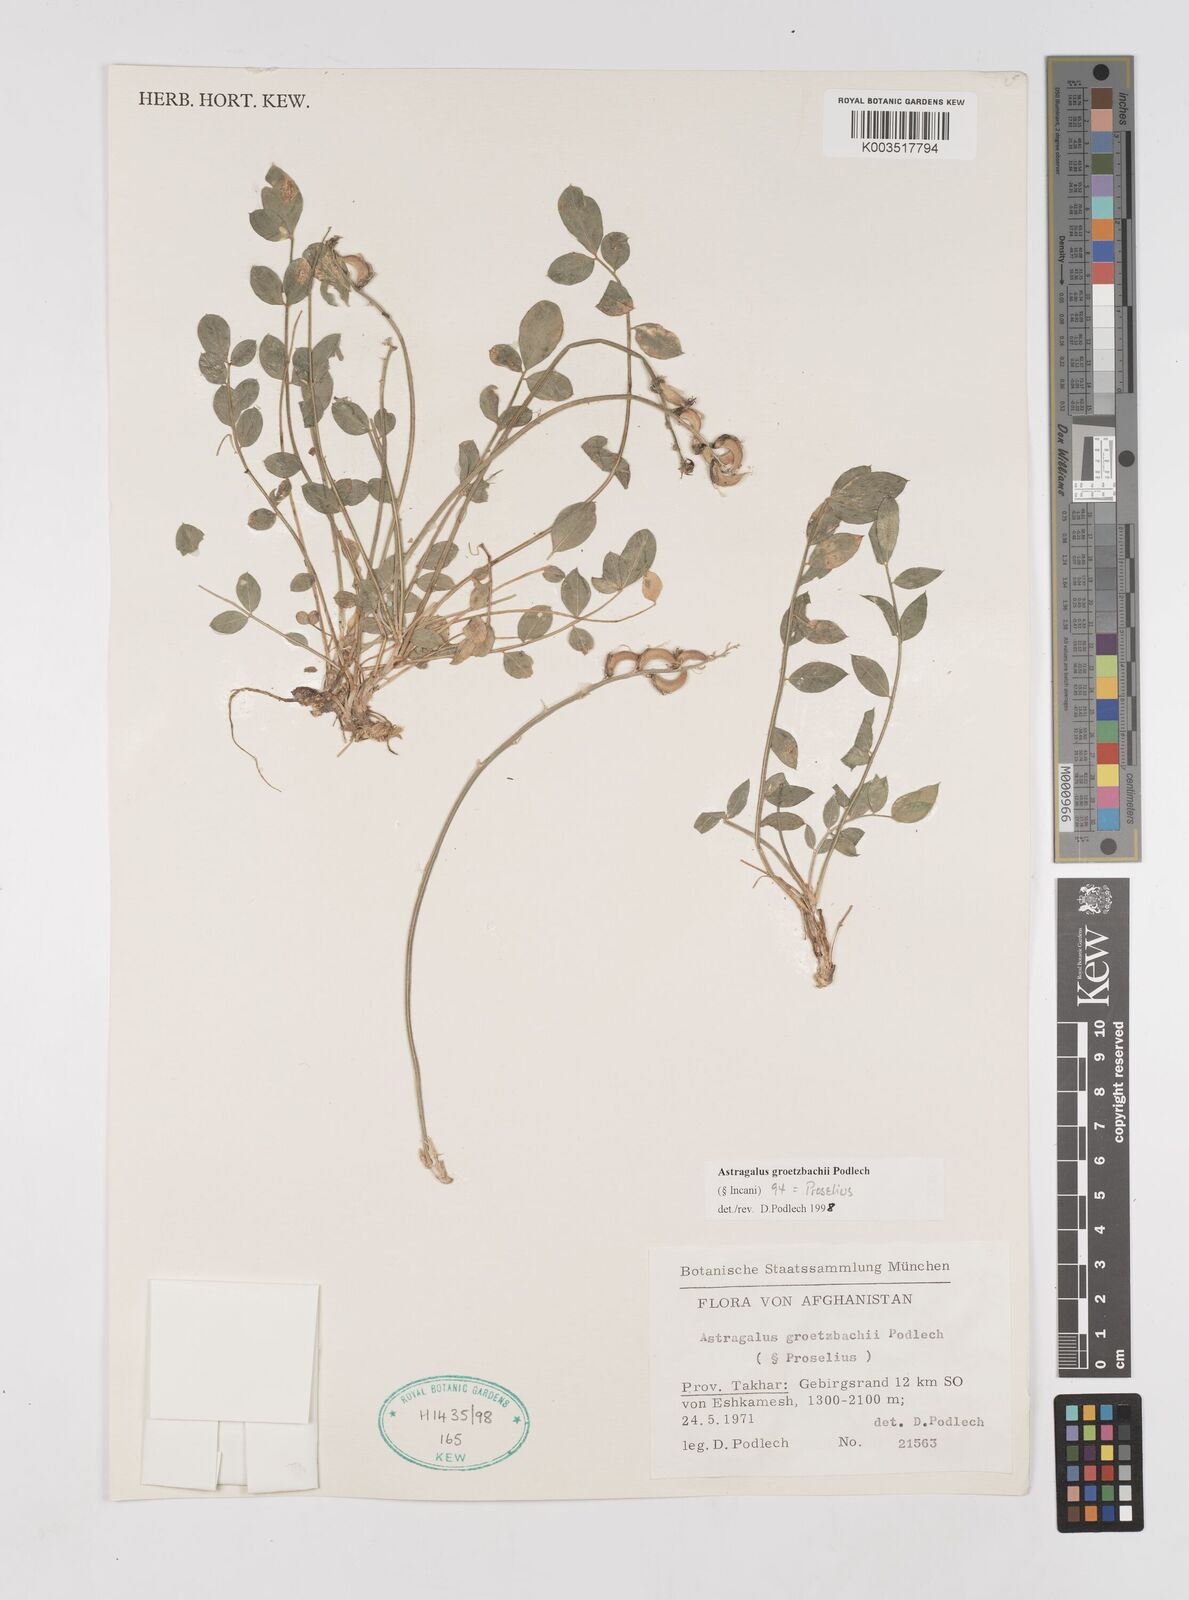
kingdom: Plantae
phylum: Tracheophyta
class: Magnoliopsida
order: Fabales
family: Fabaceae
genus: Astragalus
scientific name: Astragalus groetzbachii
